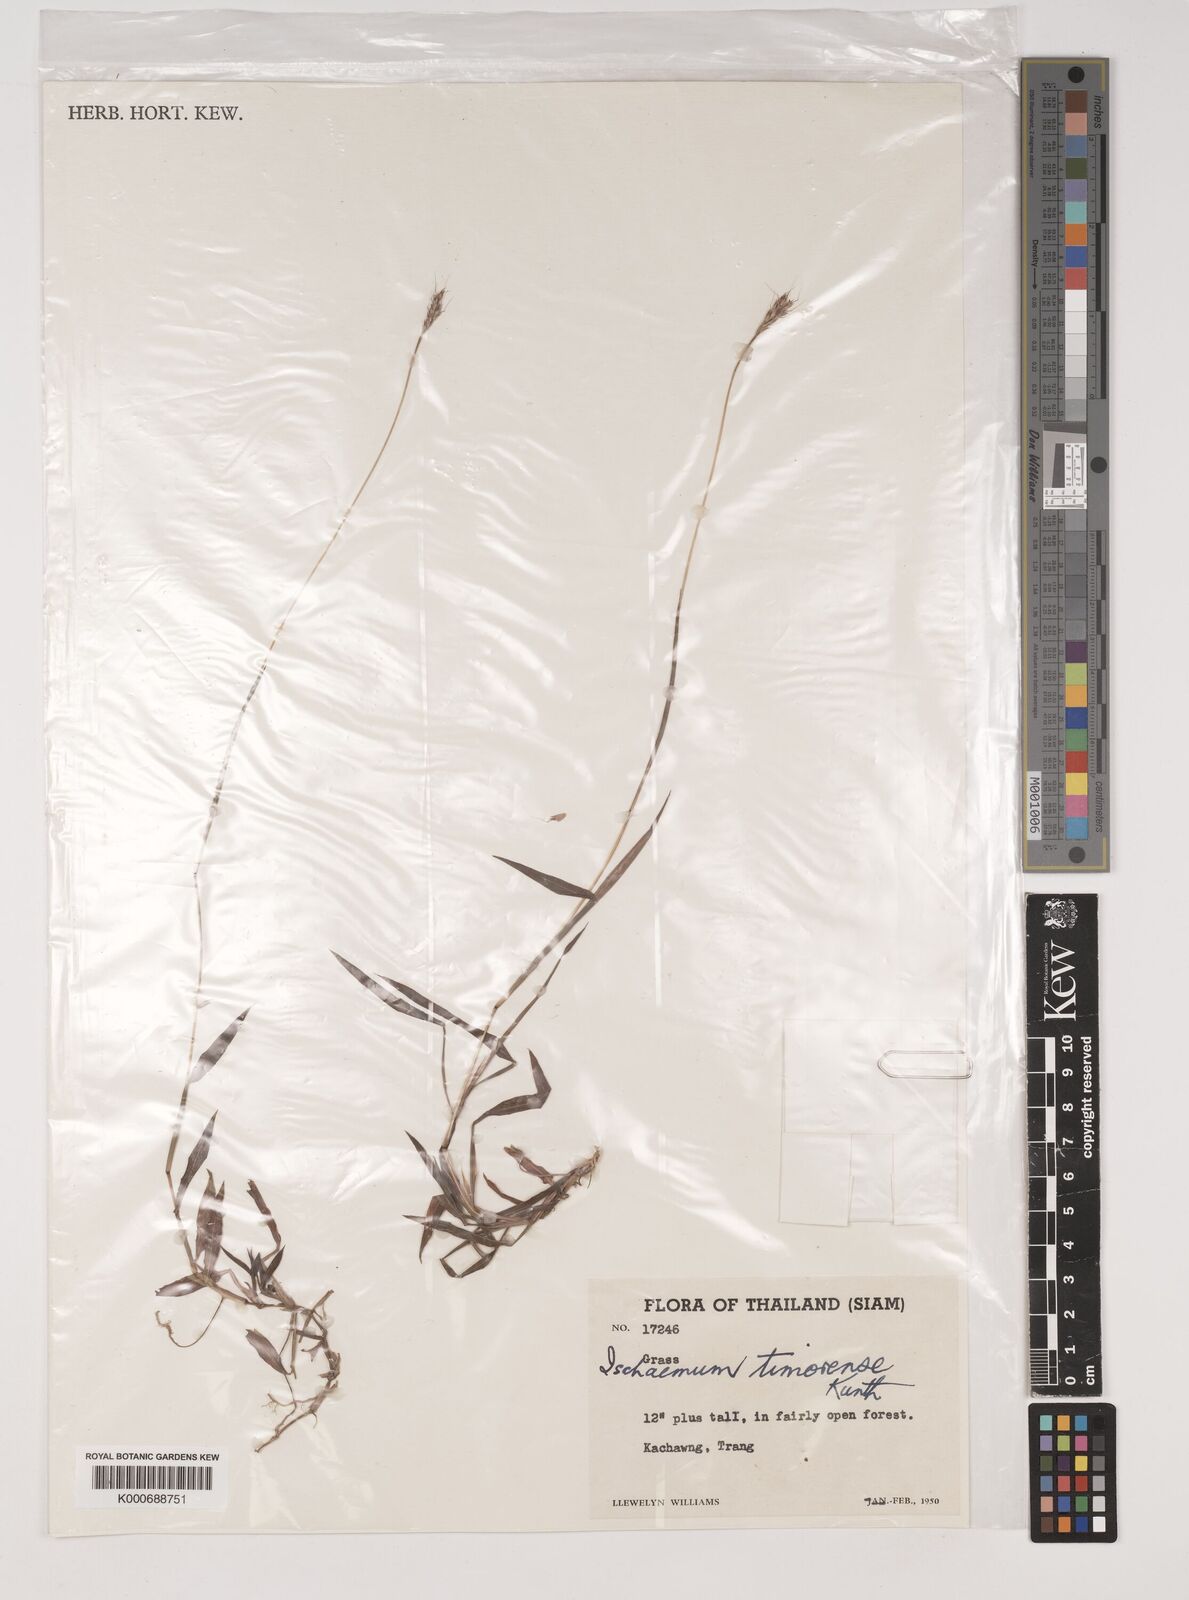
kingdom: Plantae
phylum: Tracheophyta
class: Liliopsida
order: Poales
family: Poaceae
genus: Ischaemum
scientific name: Ischaemum timorense
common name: Stalkleaf murainagrass
